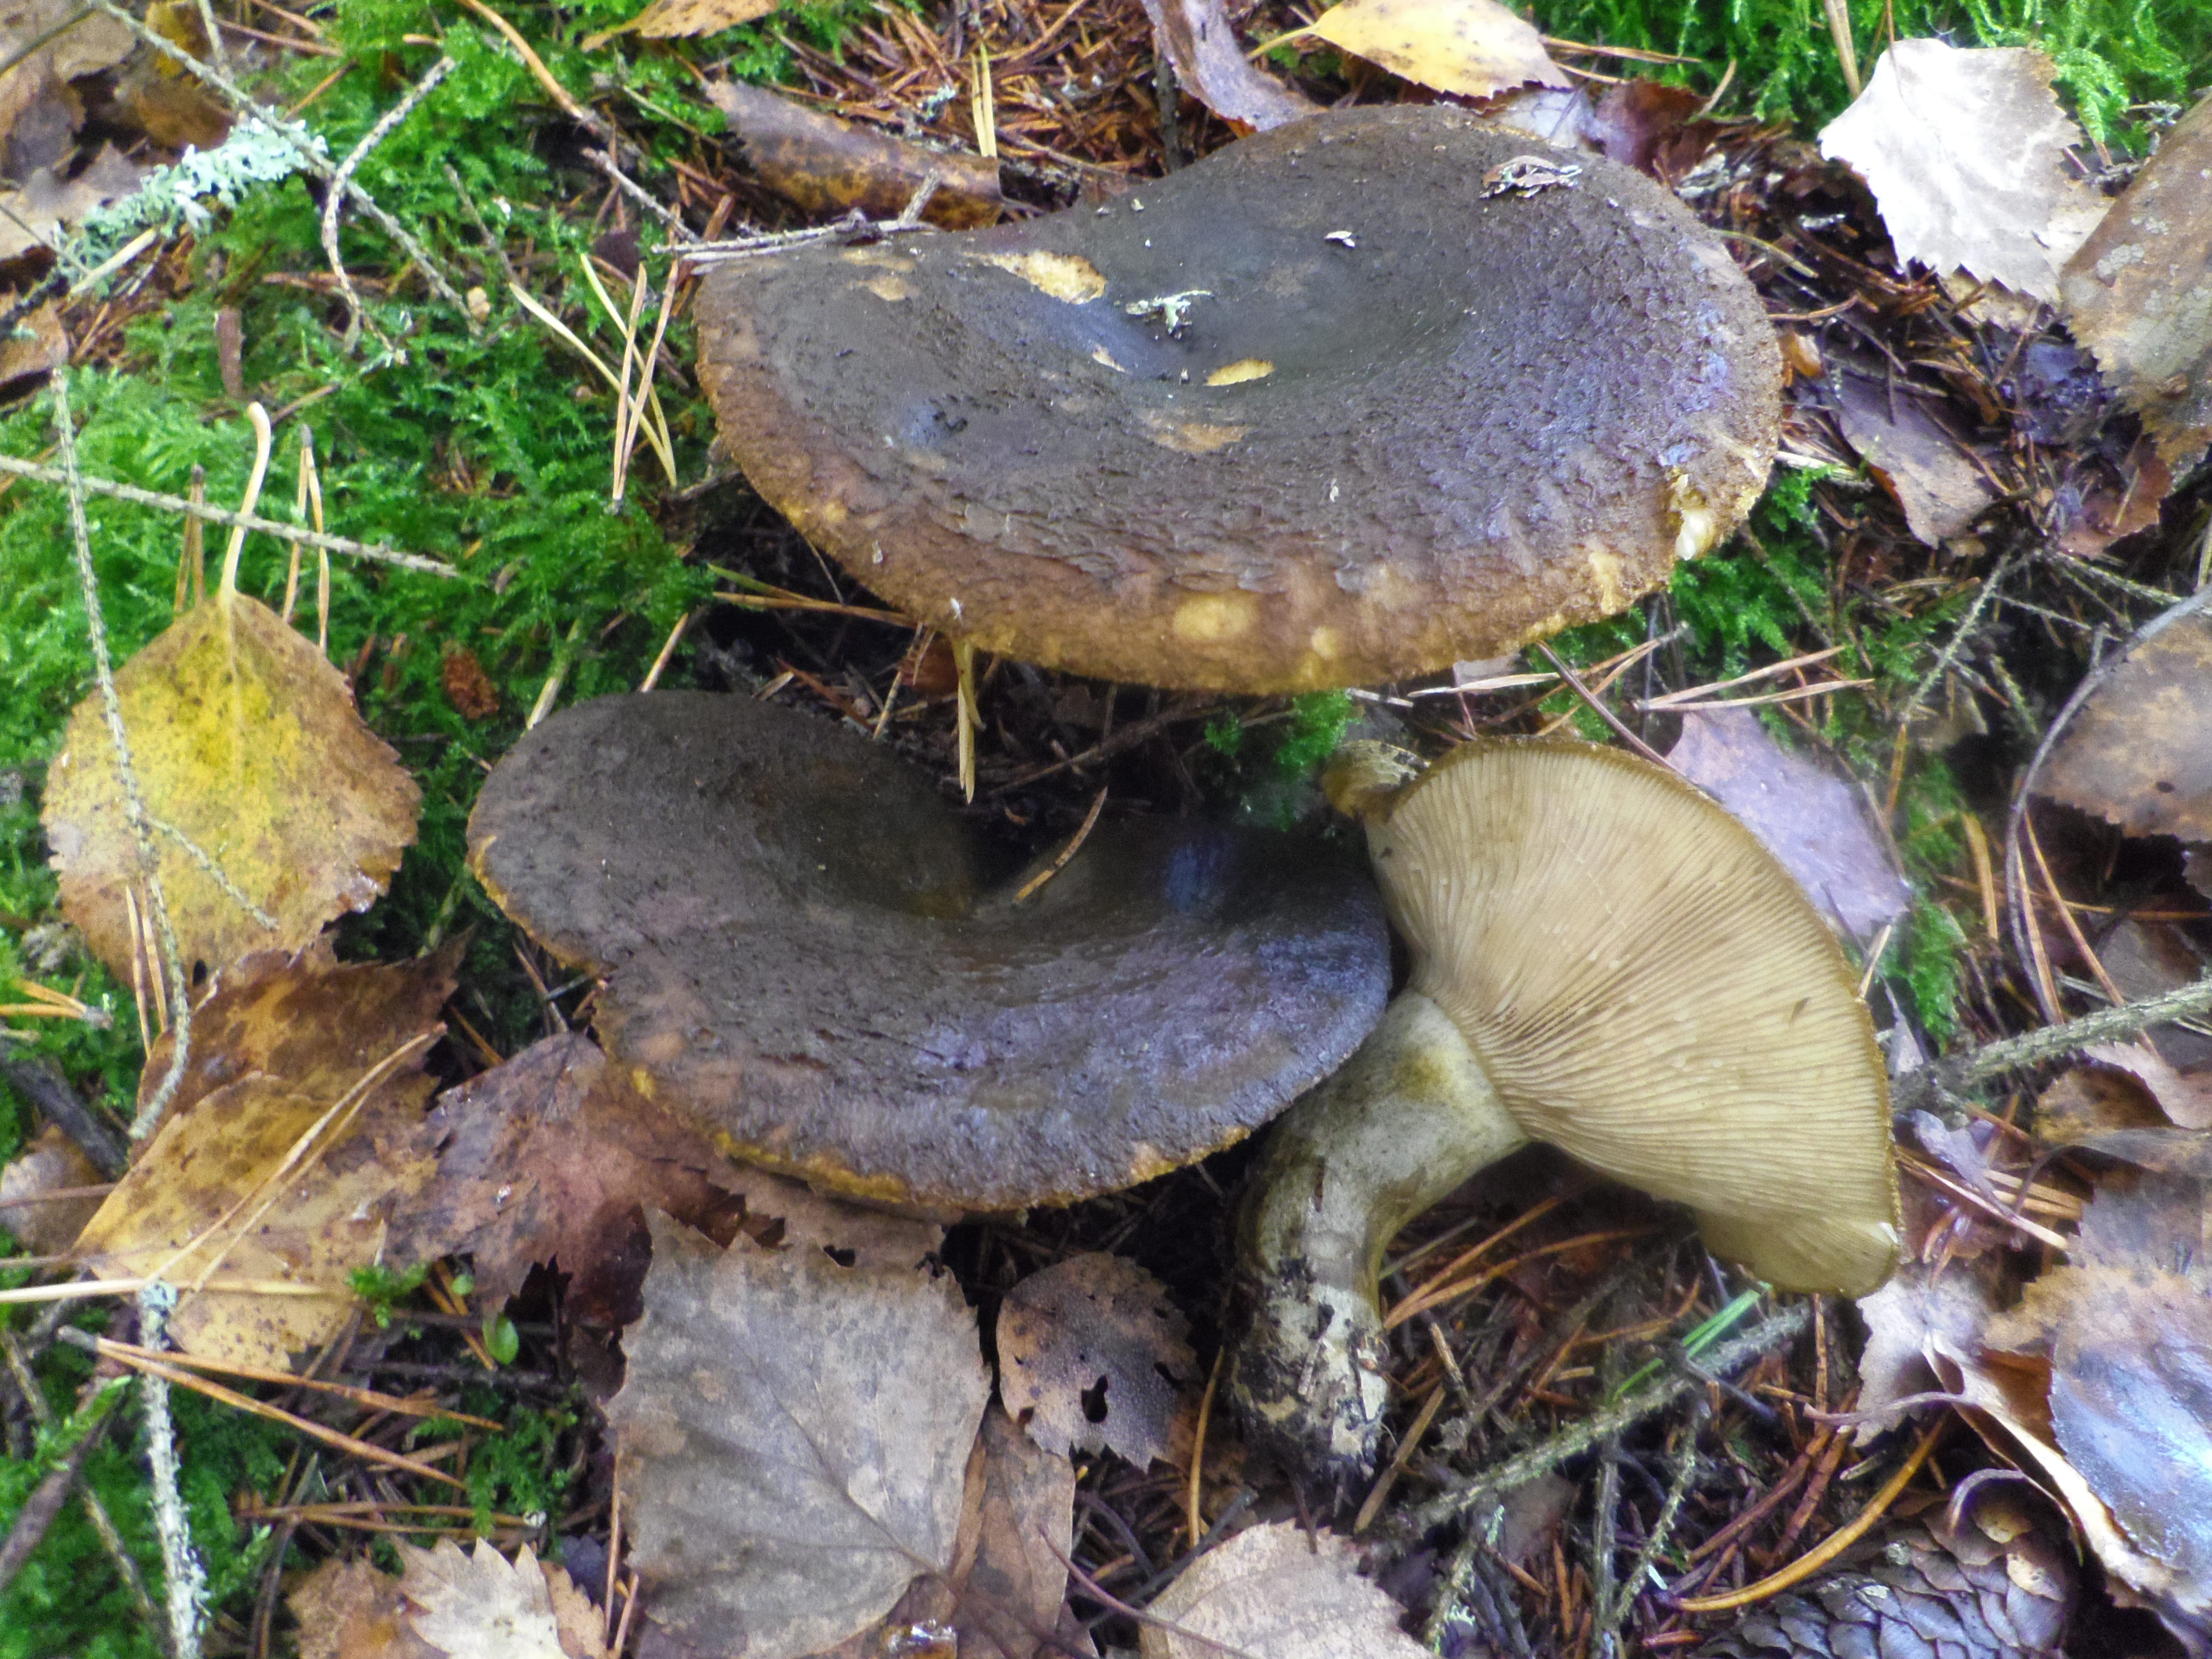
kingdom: Fungi
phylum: Basidiomycota
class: Agaricomycetes
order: Russulales
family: Russulaceae
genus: Lactarius
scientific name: Lactarius turpis
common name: Ugly milk-cap
